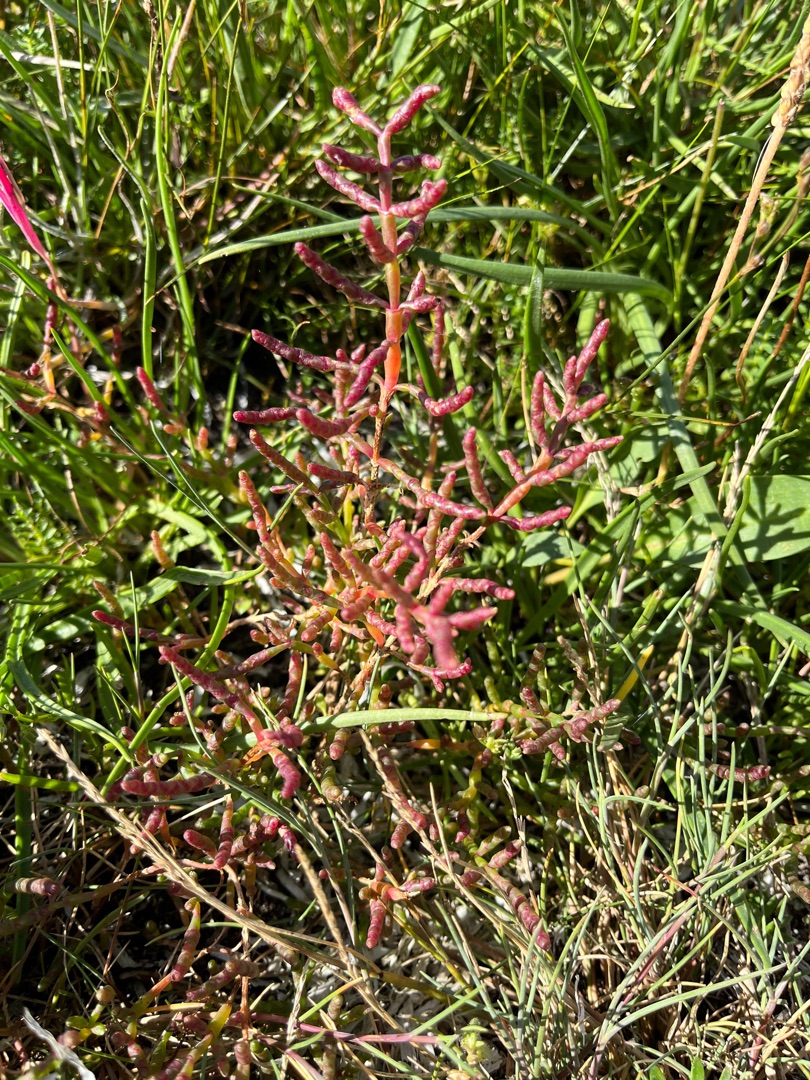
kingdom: Plantae
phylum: Tracheophyta
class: Magnoliopsida
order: Caryophyllales
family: Amaranthaceae
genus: Salicornia
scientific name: Salicornia europaea
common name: Almindelig salturt
